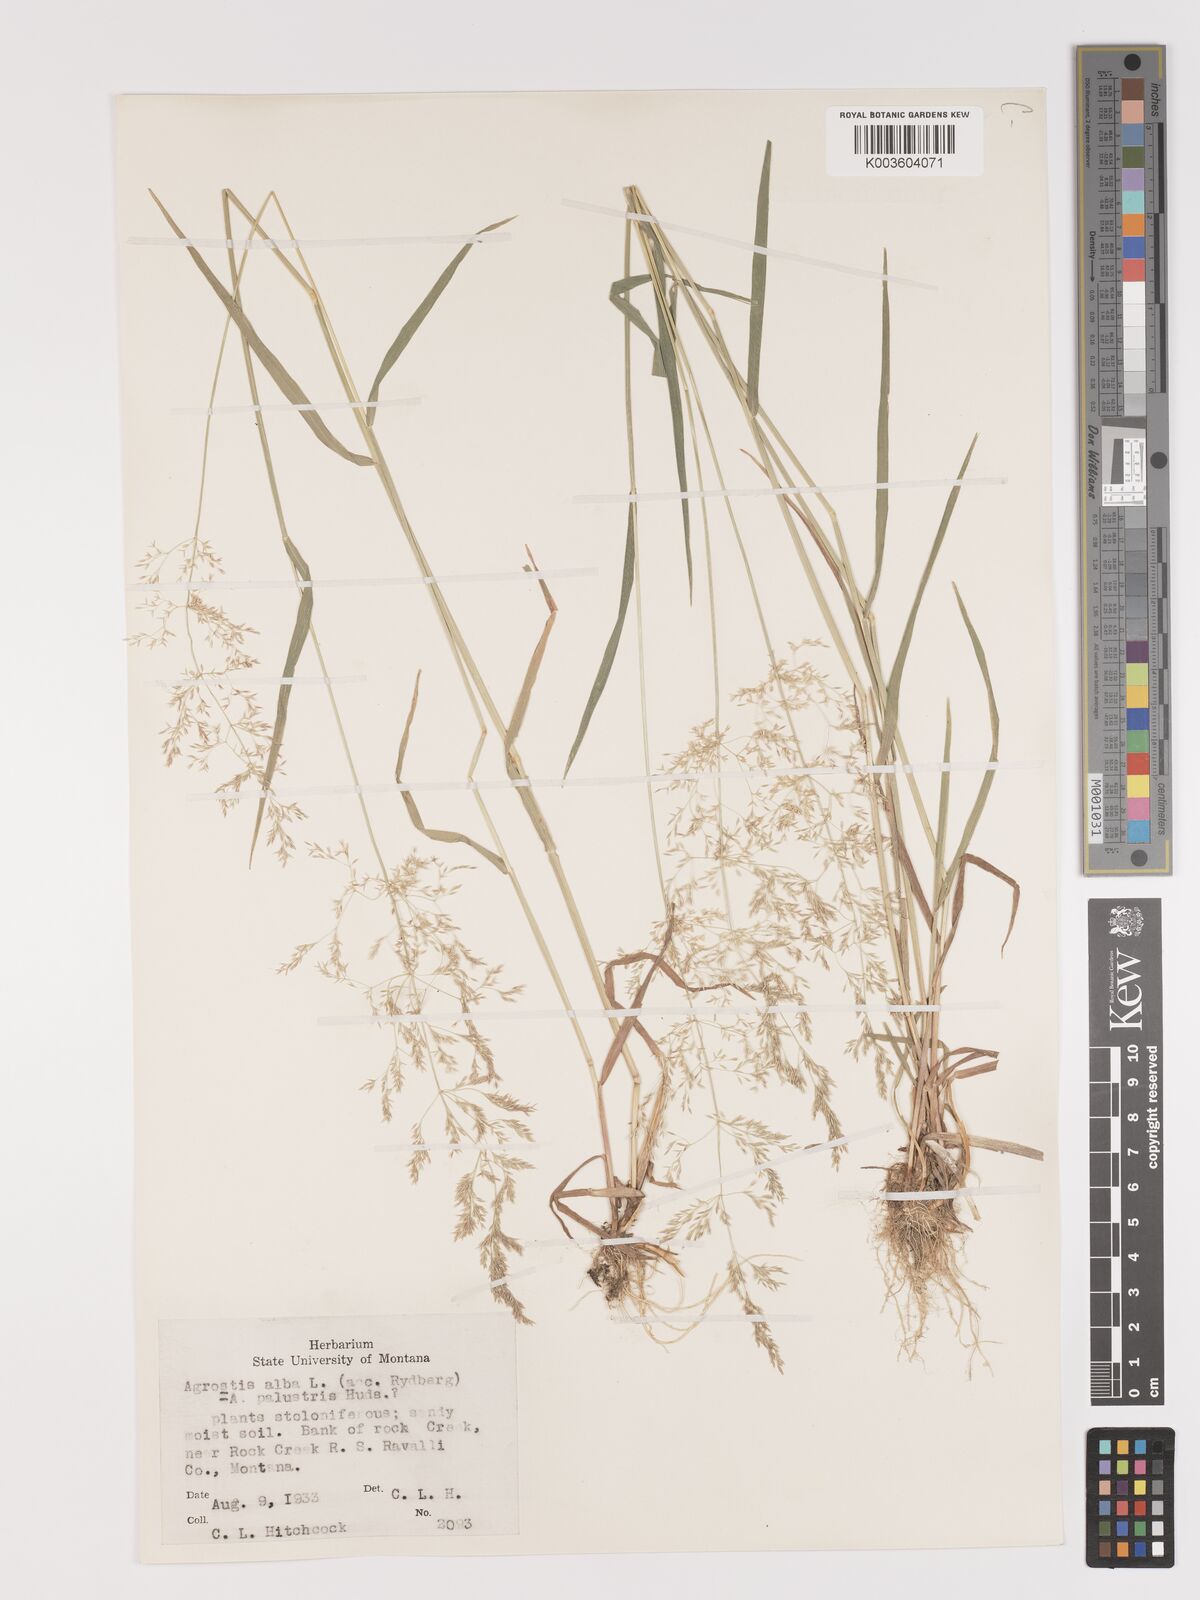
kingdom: Plantae
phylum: Tracheophyta
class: Liliopsida
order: Poales
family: Poaceae
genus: Agrostis
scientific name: Agrostis gigantea
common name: Black bent
